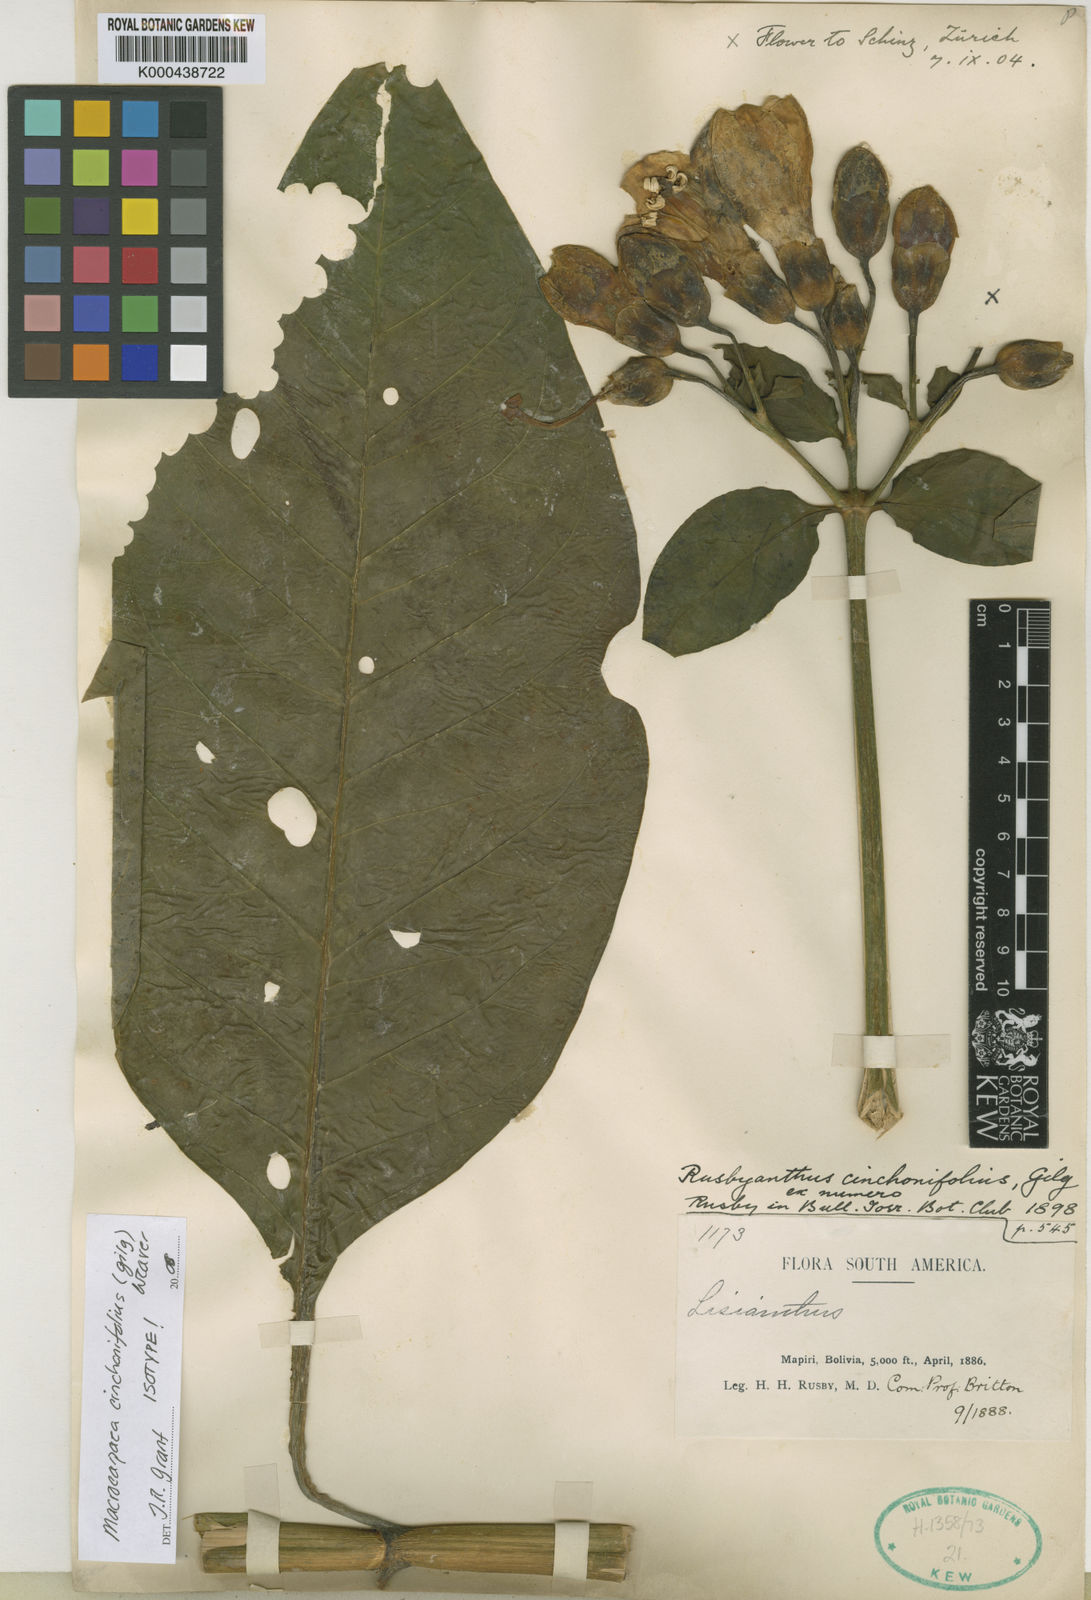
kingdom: Plantae
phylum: Tracheophyta
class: Magnoliopsida
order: Gentianales
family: Gentianaceae
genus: Macrocarpaea
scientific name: Macrocarpaea cinchonifolia
